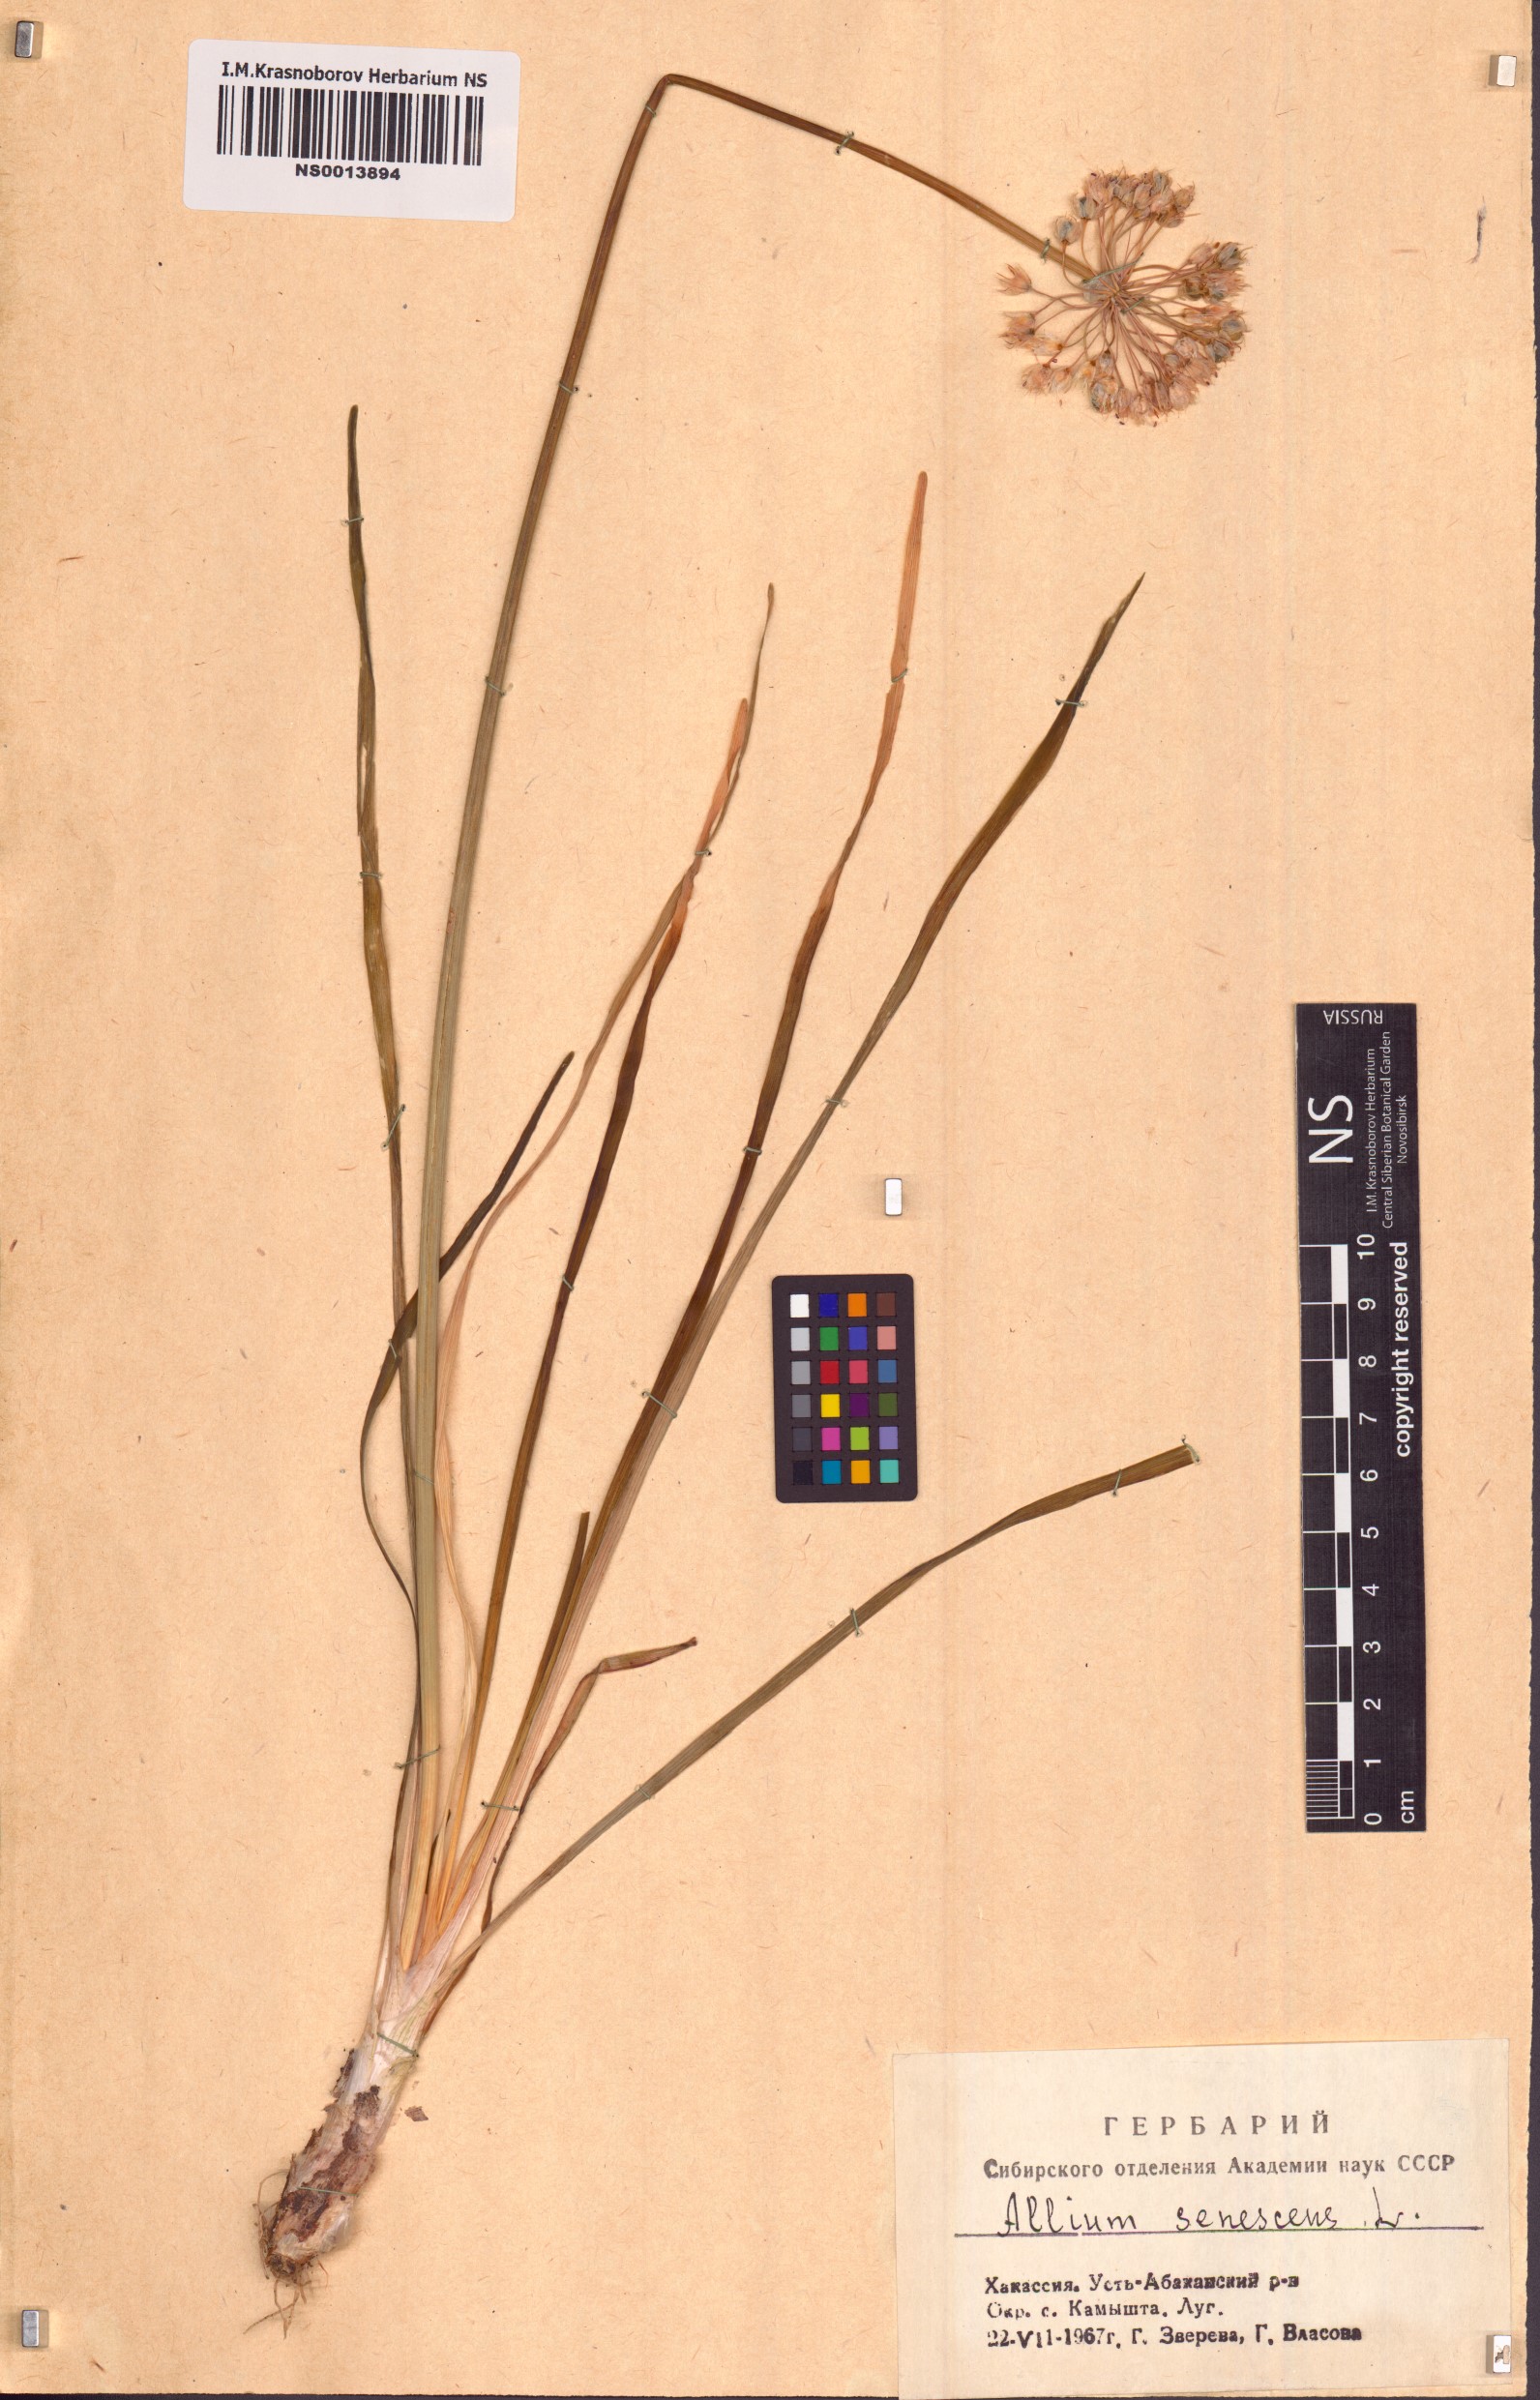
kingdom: Plantae
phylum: Tracheophyta
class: Liliopsida
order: Asparagales
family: Amaryllidaceae
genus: Allium
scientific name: Allium senescens
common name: German garlic
